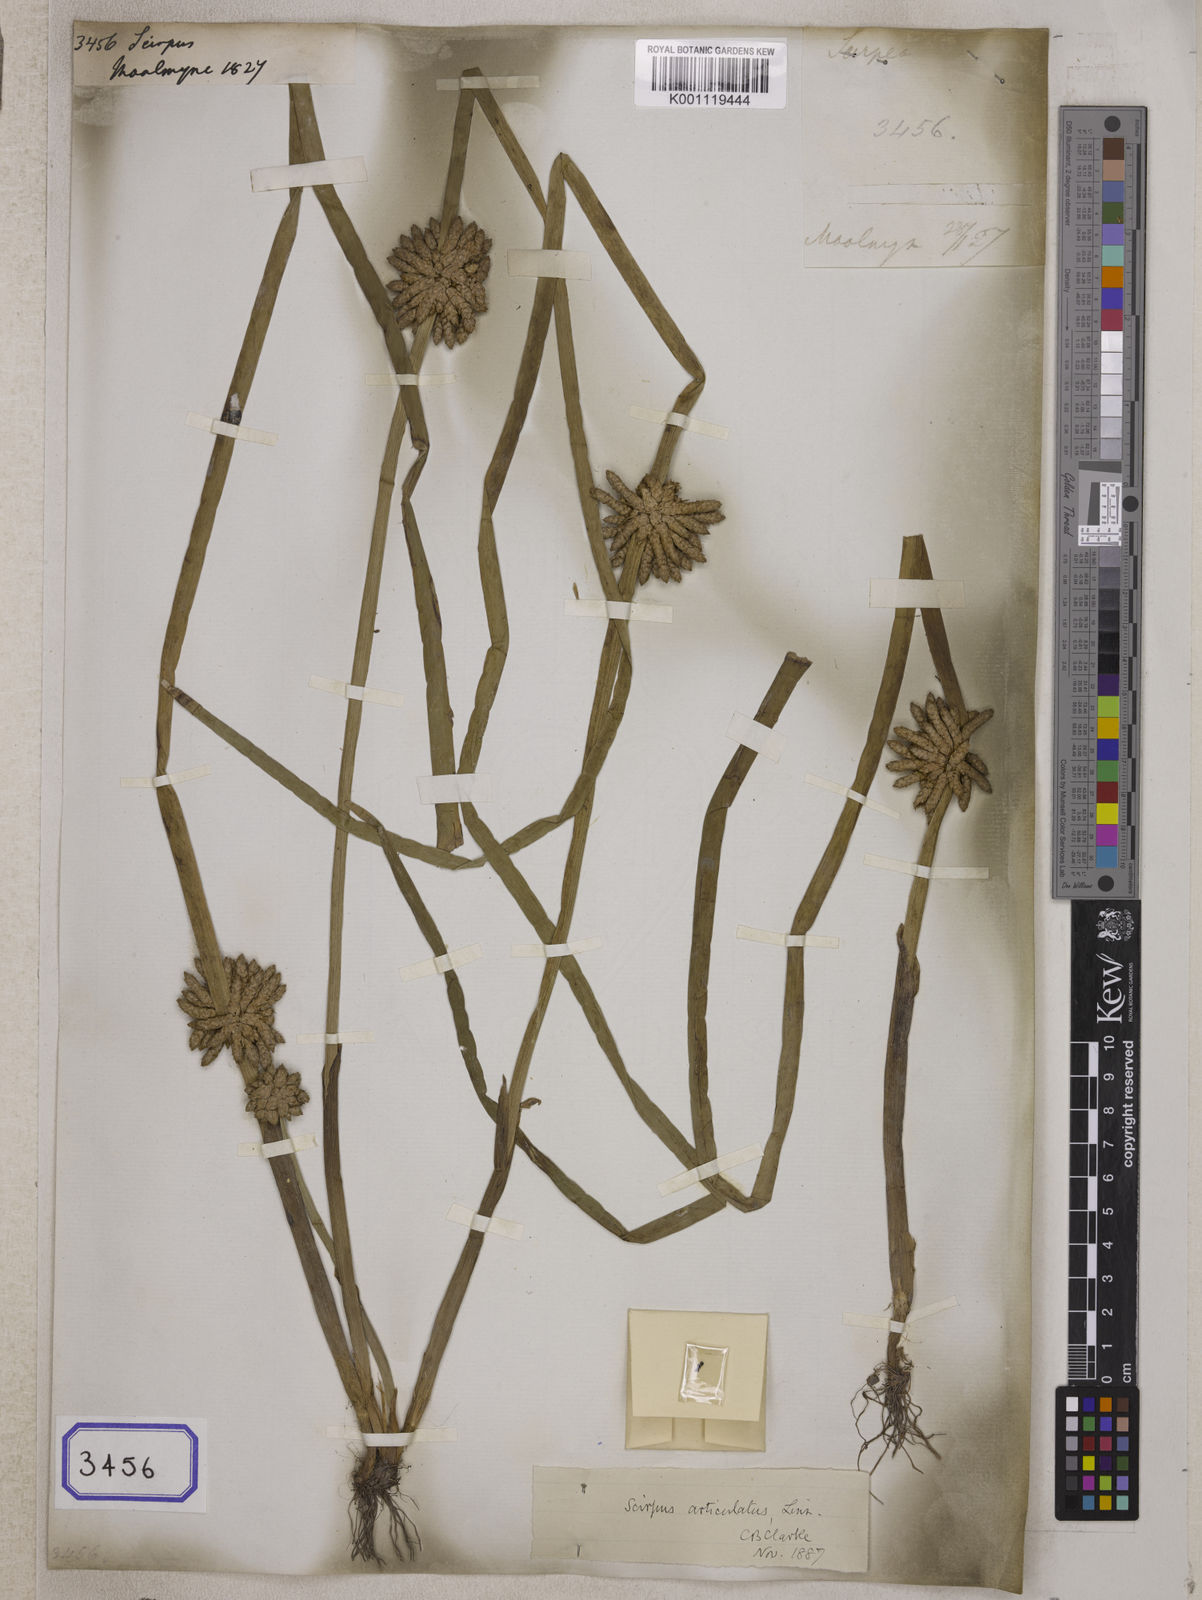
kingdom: Plantae
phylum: Tracheophyta
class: Liliopsida
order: Poales
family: Cyperaceae
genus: Scirpus
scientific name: Scirpus
